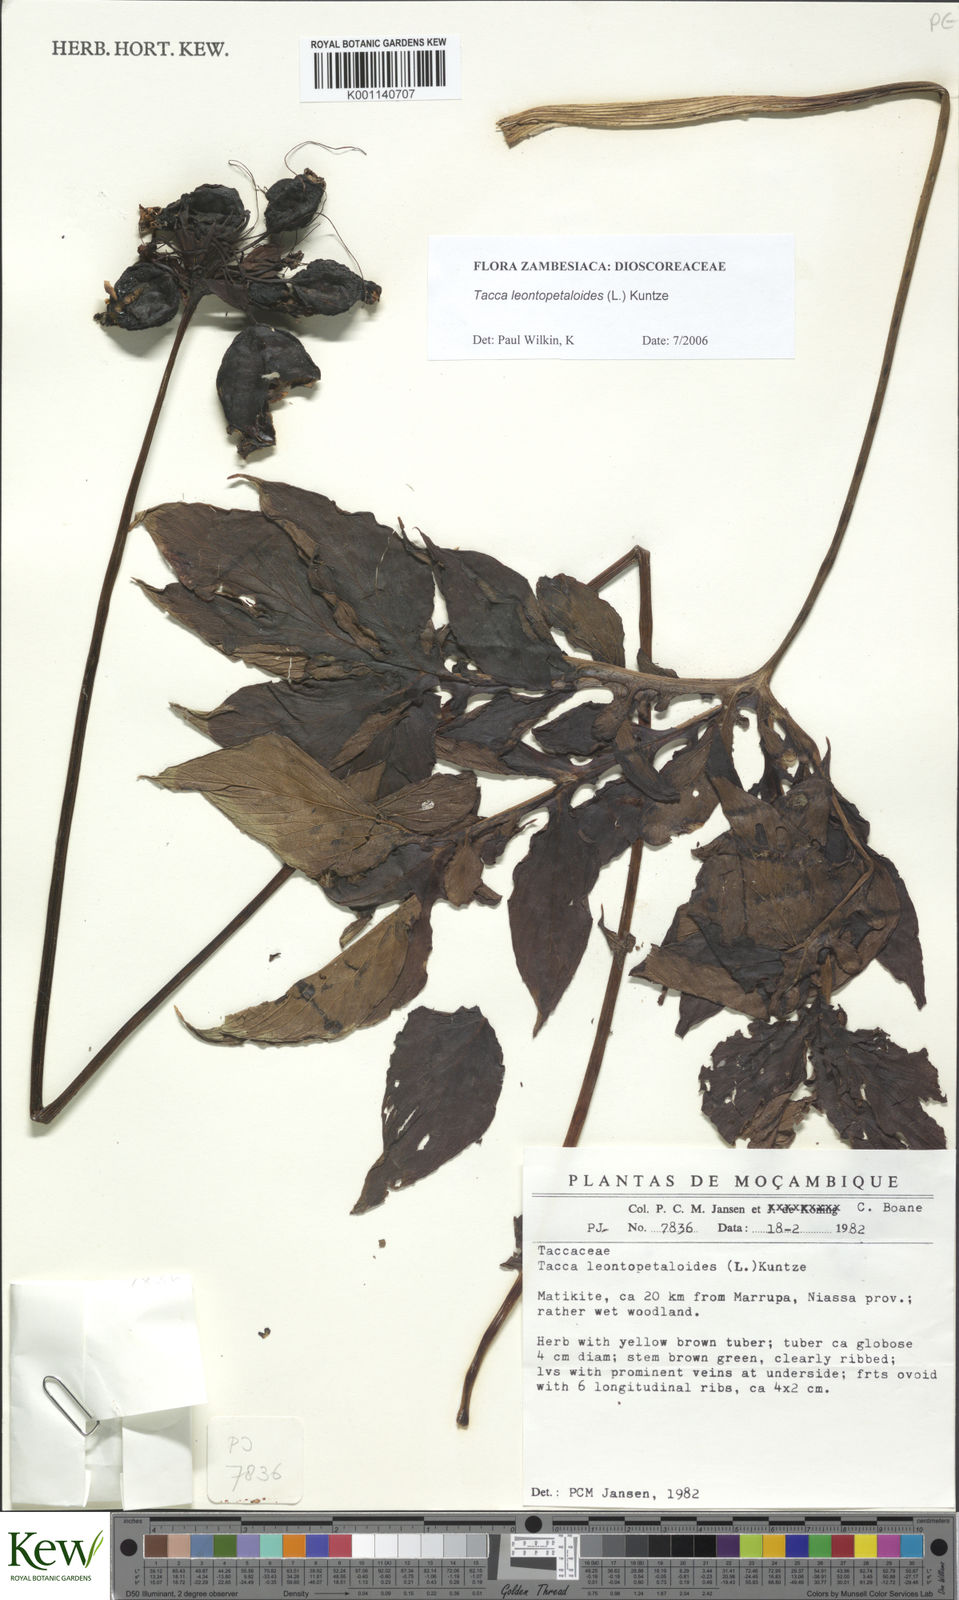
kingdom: Plantae
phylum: Tracheophyta
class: Liliopsida
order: Dioscoreales
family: Dioscoreaceae
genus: Tacca
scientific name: Tacca leontopetaloides
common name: Arrowroot
